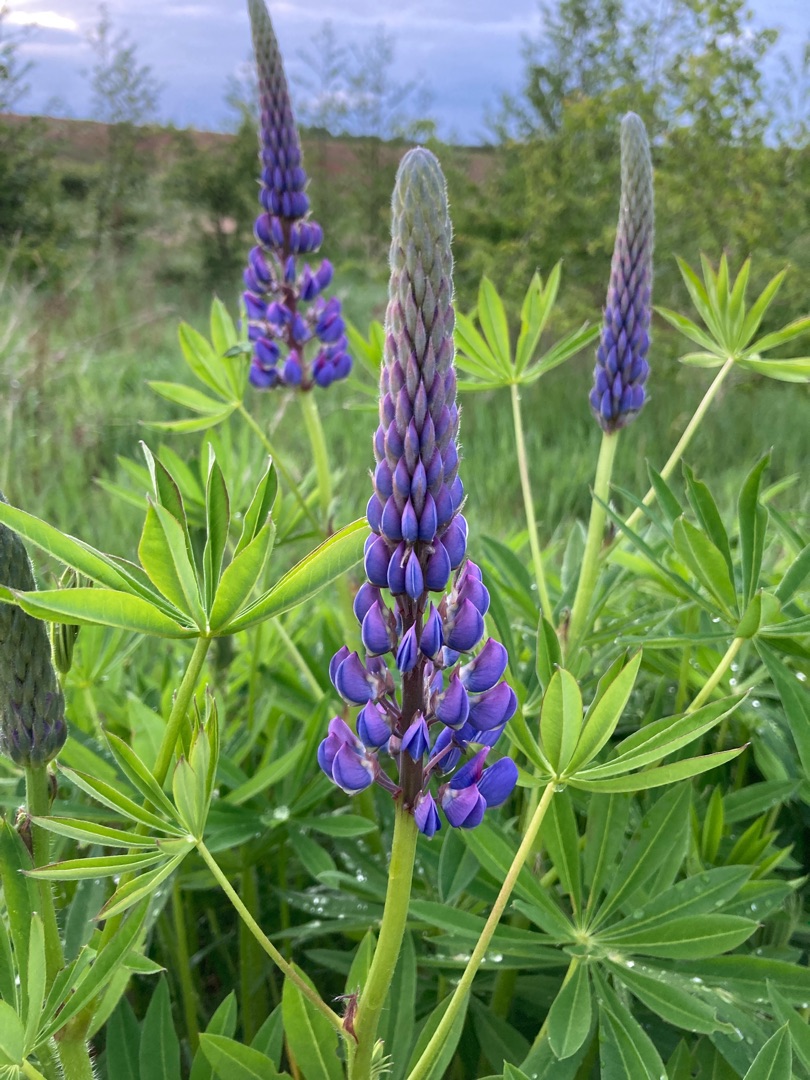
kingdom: Plantae
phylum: Tracheophyta
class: Magnoliopsida
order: Fabales
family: Fabaceae
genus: Lupinus
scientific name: Lupinus polyphyllus
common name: Mangebladet lupin
